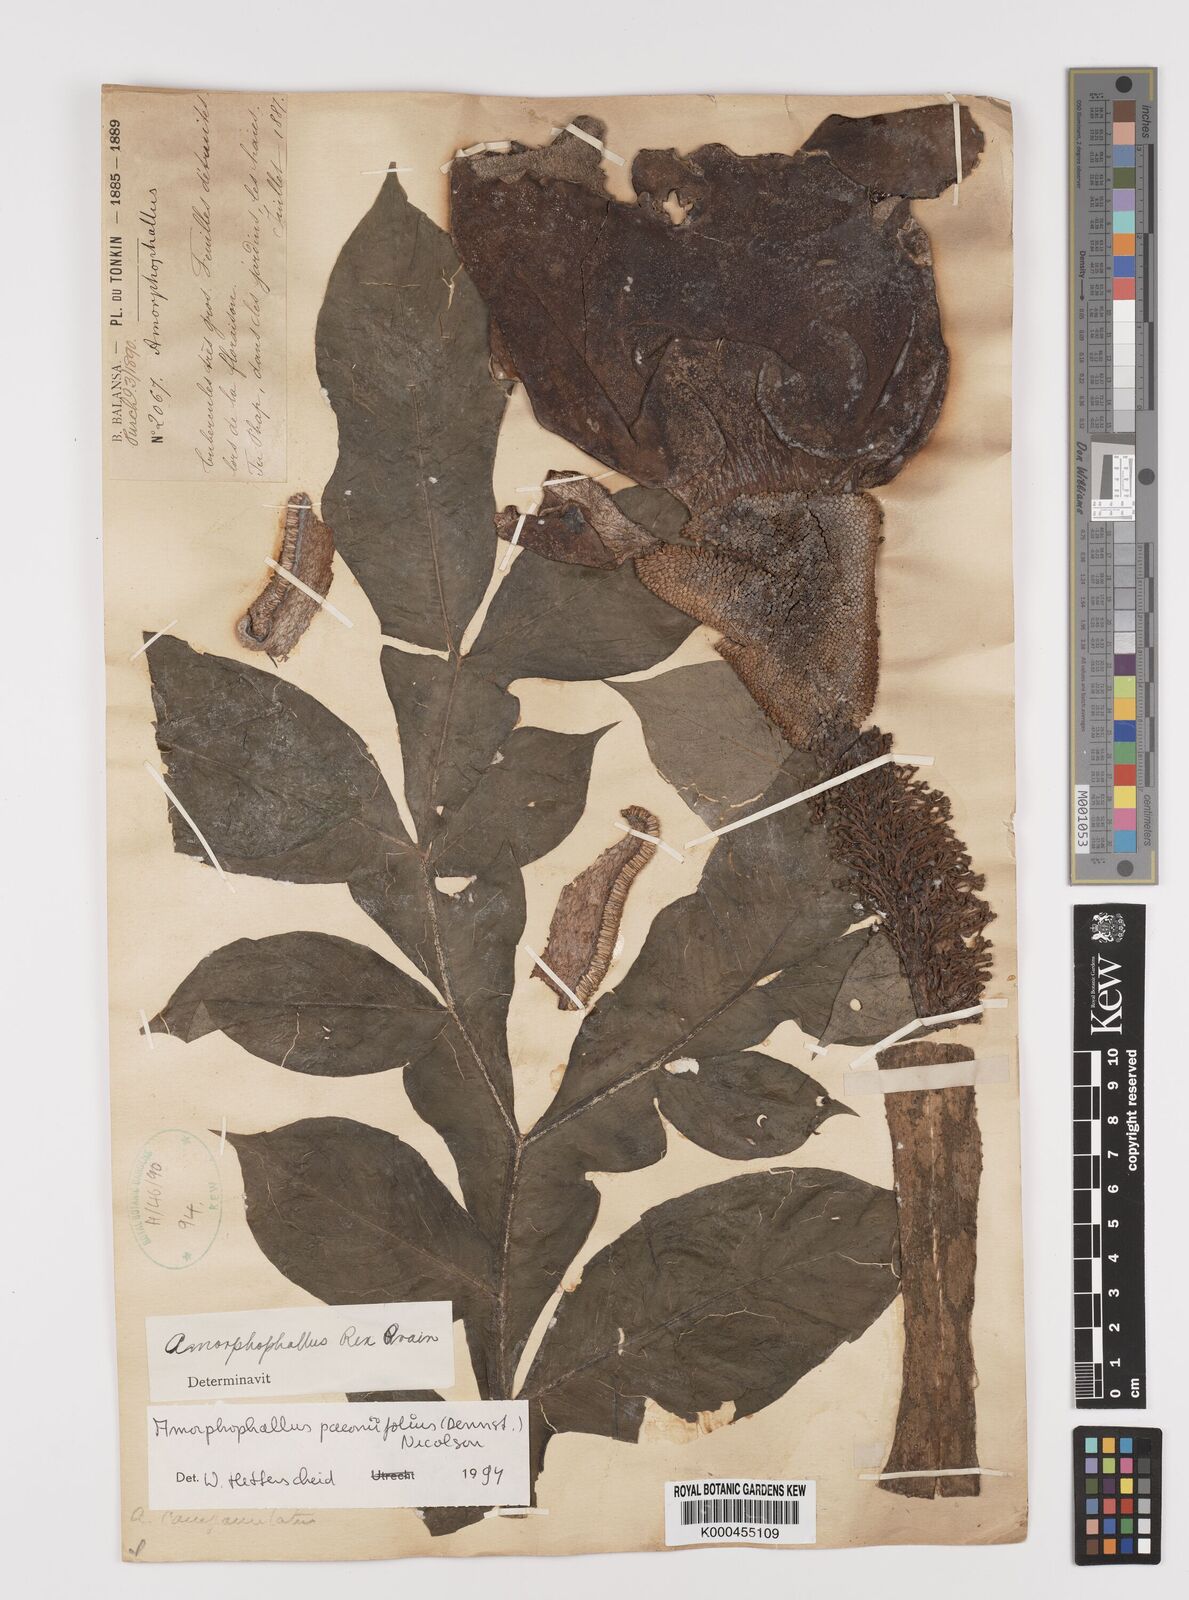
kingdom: Plantae
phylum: Tracheophyta
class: Liliopsida
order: Alismatales
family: Araceae
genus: Amorphophallus
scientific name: Amorphophallus paeoniifolius
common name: Telinga-potato
